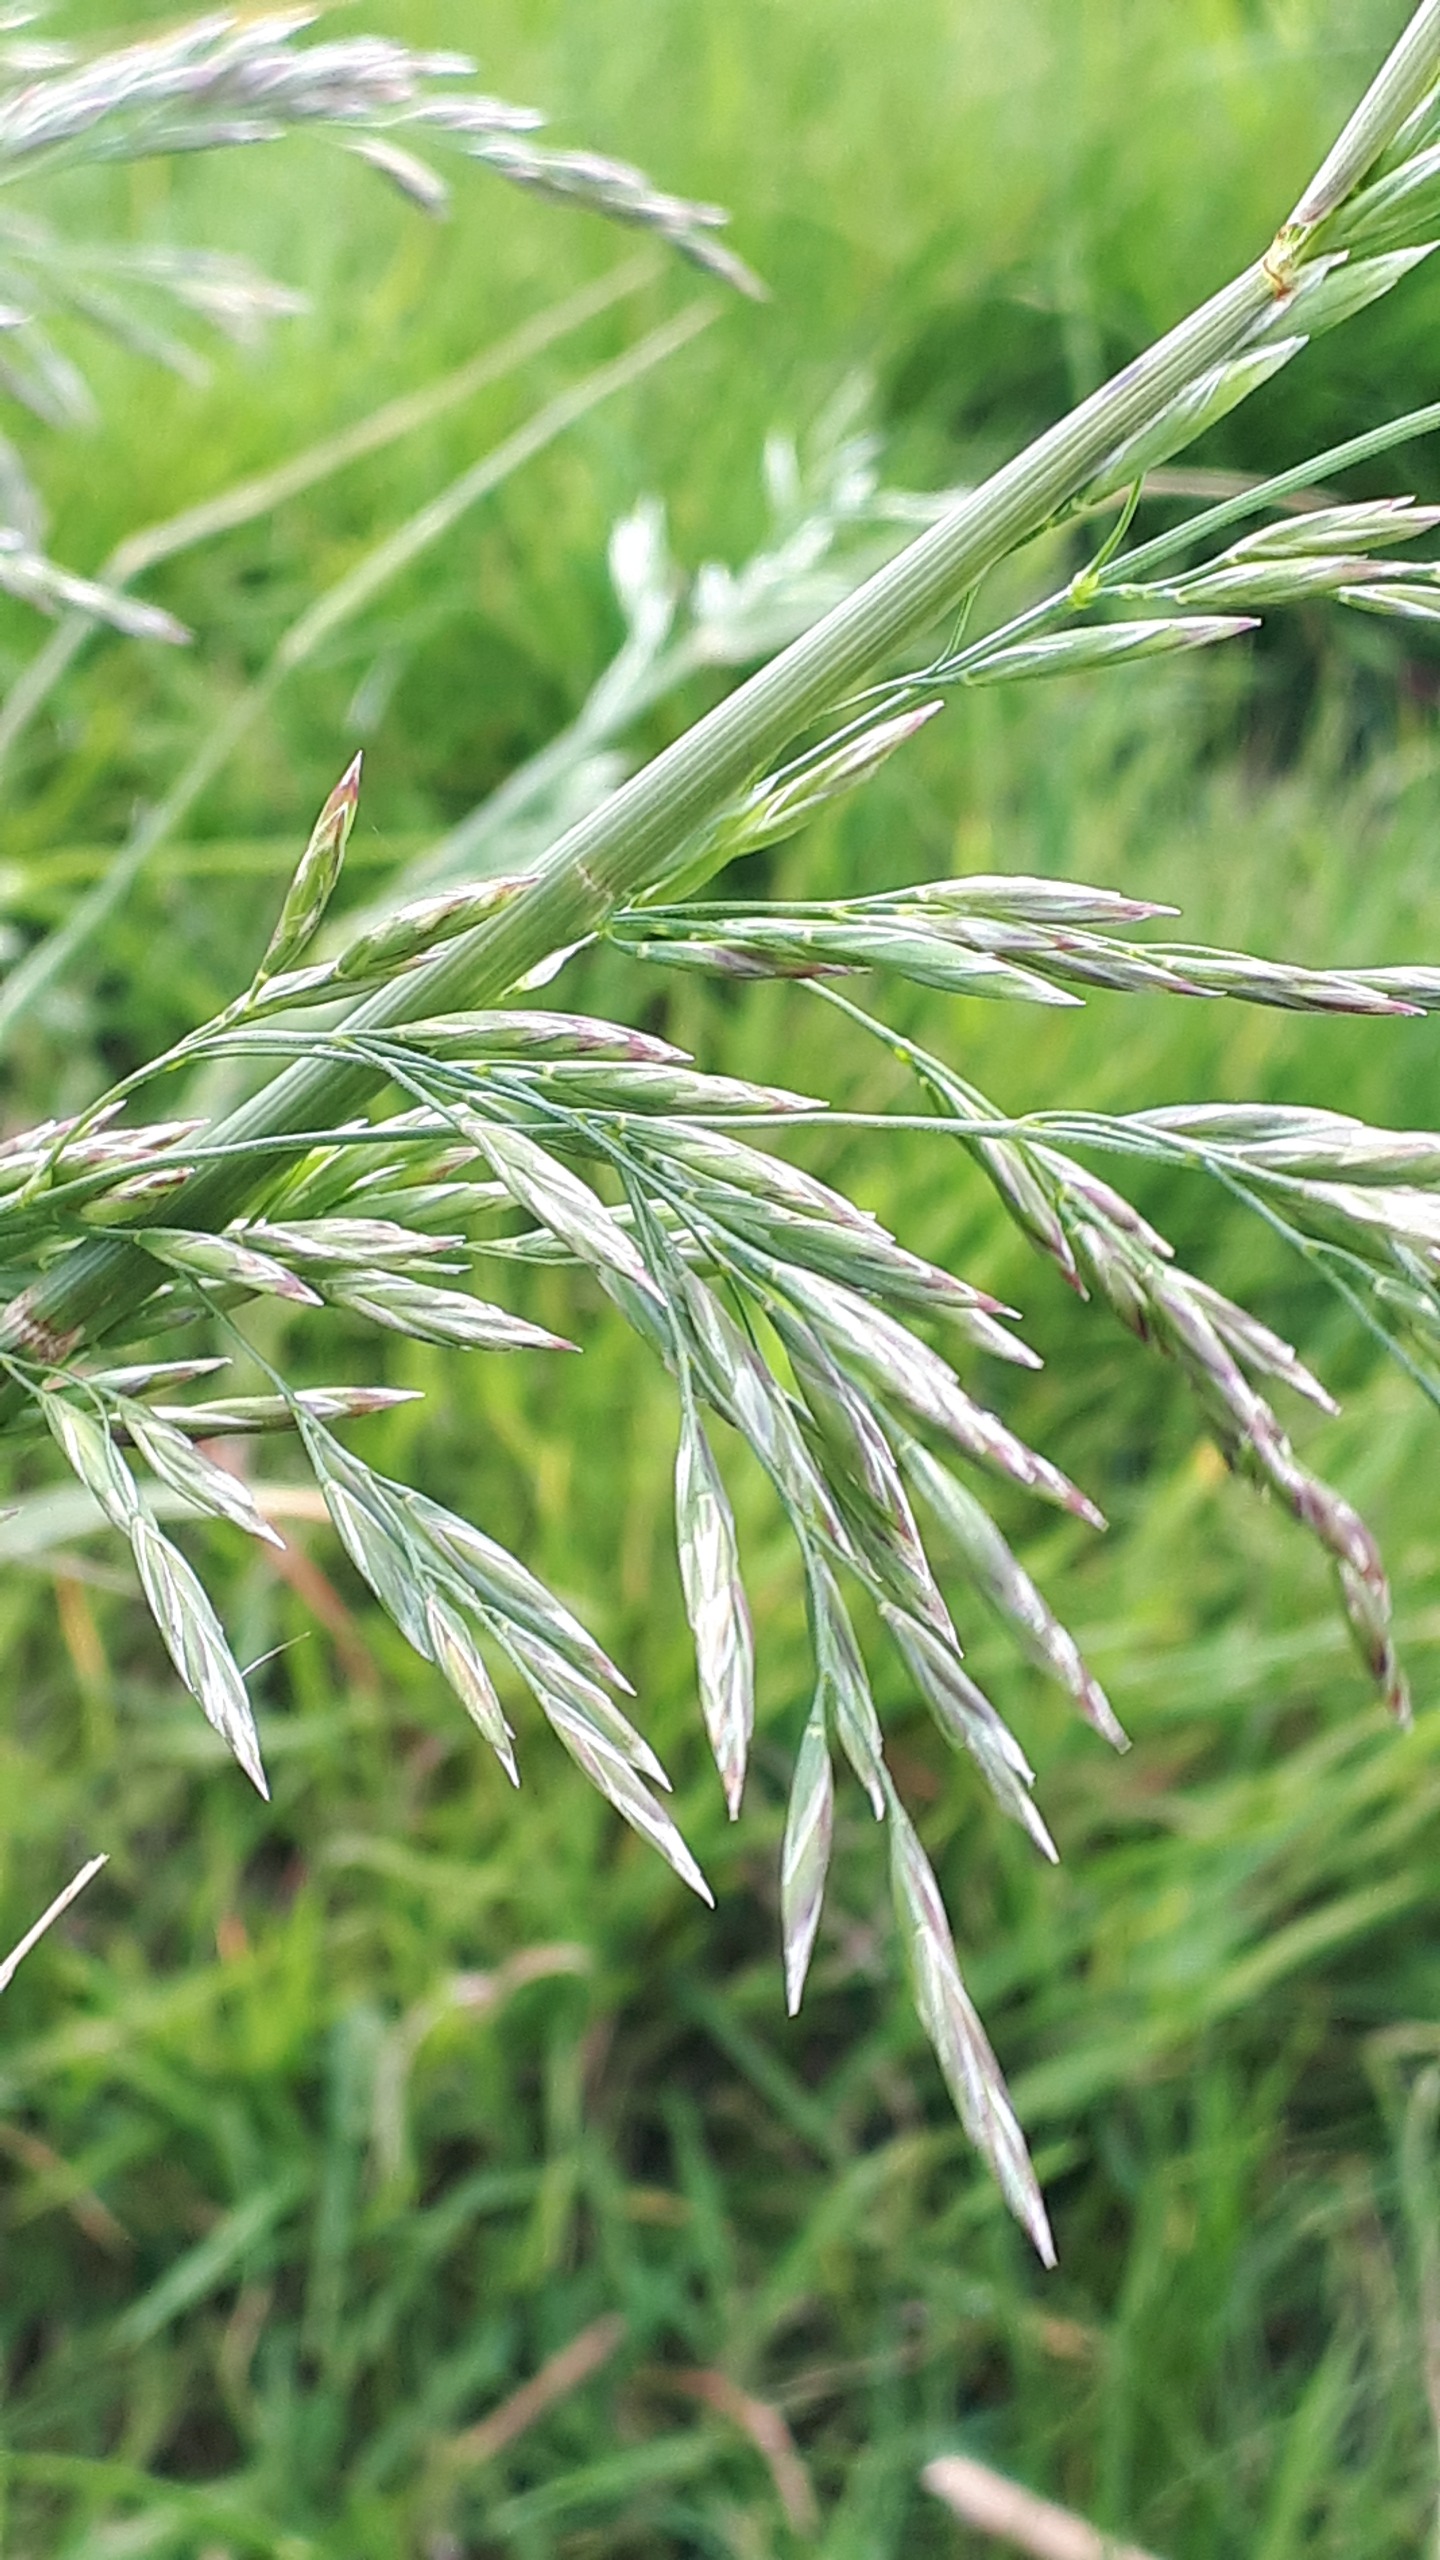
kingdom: Plantae
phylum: Tracheophyta
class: Liliopsida
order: Poales
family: Poaceae
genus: Lolium
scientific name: Lolium arundinaceum
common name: Strand-svingel
